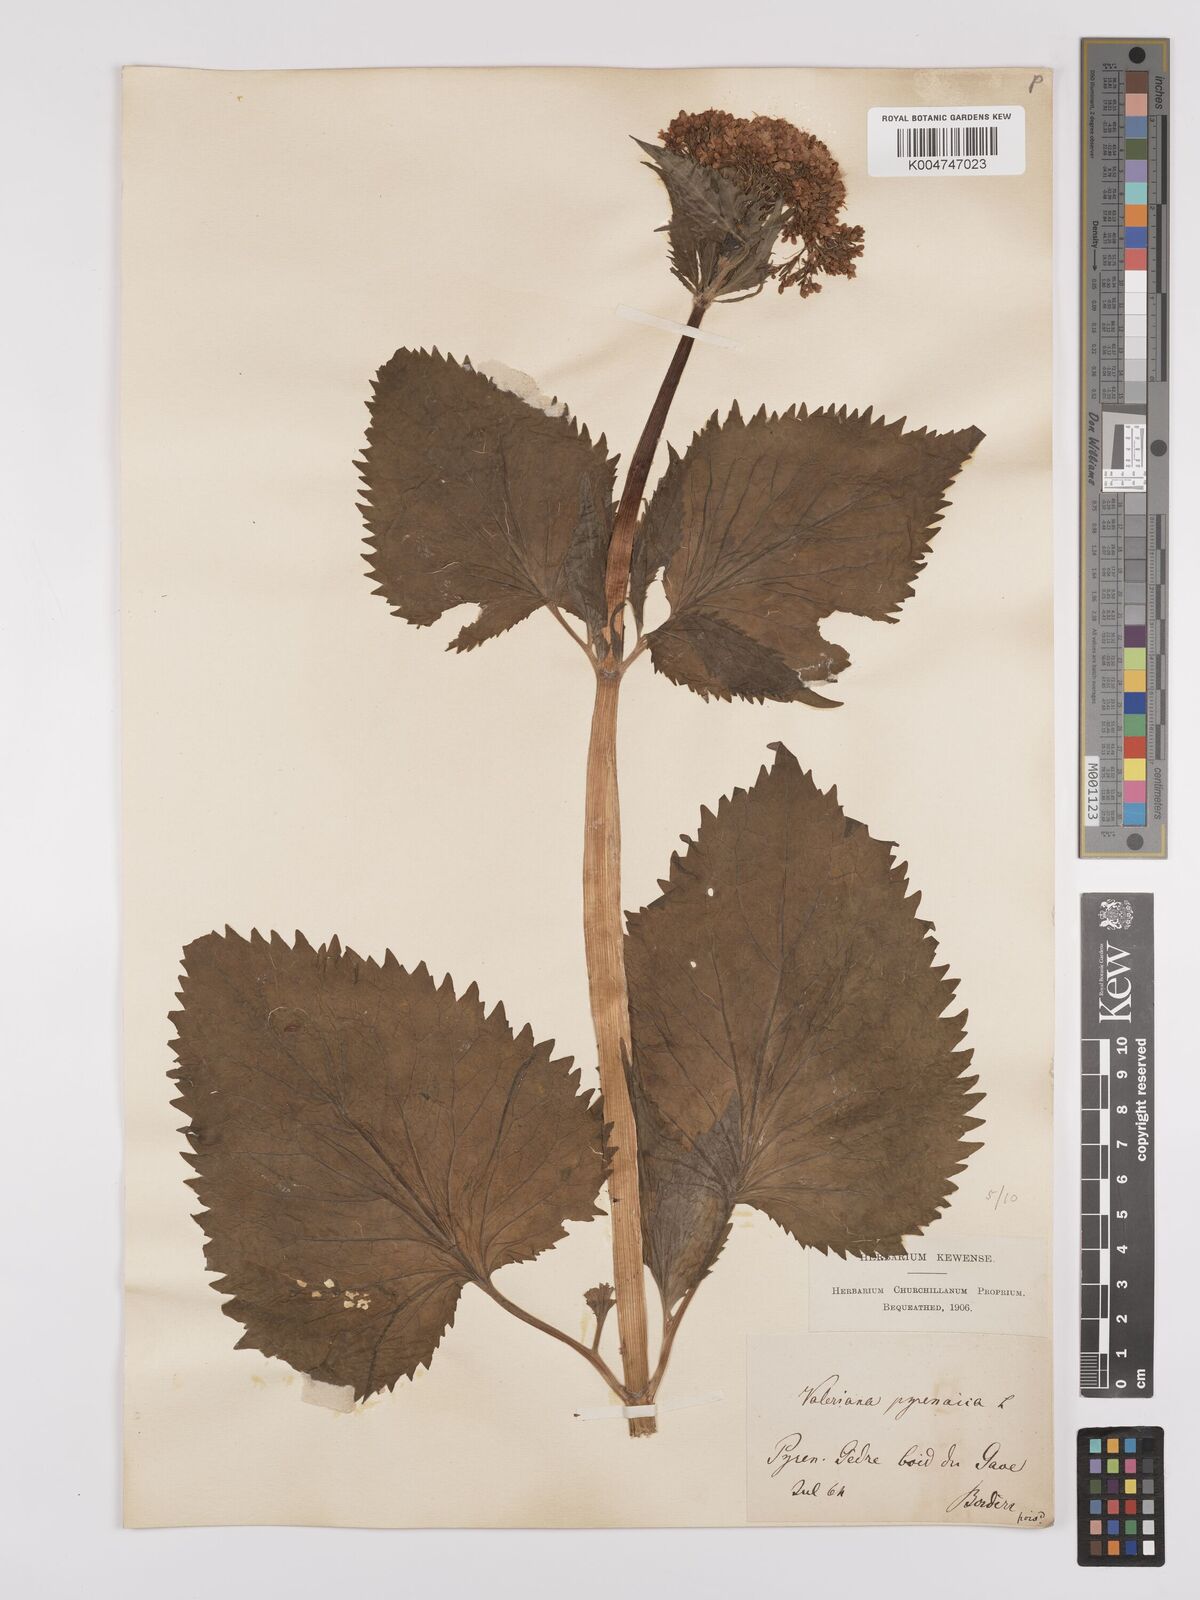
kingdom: Plantae
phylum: Tracheophyta
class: Magnoliopsida
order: Dipsacales
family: Caprifoliaceae
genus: Valeriana
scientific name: Valeriana pyrenaica
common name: Pyrenean valerian
